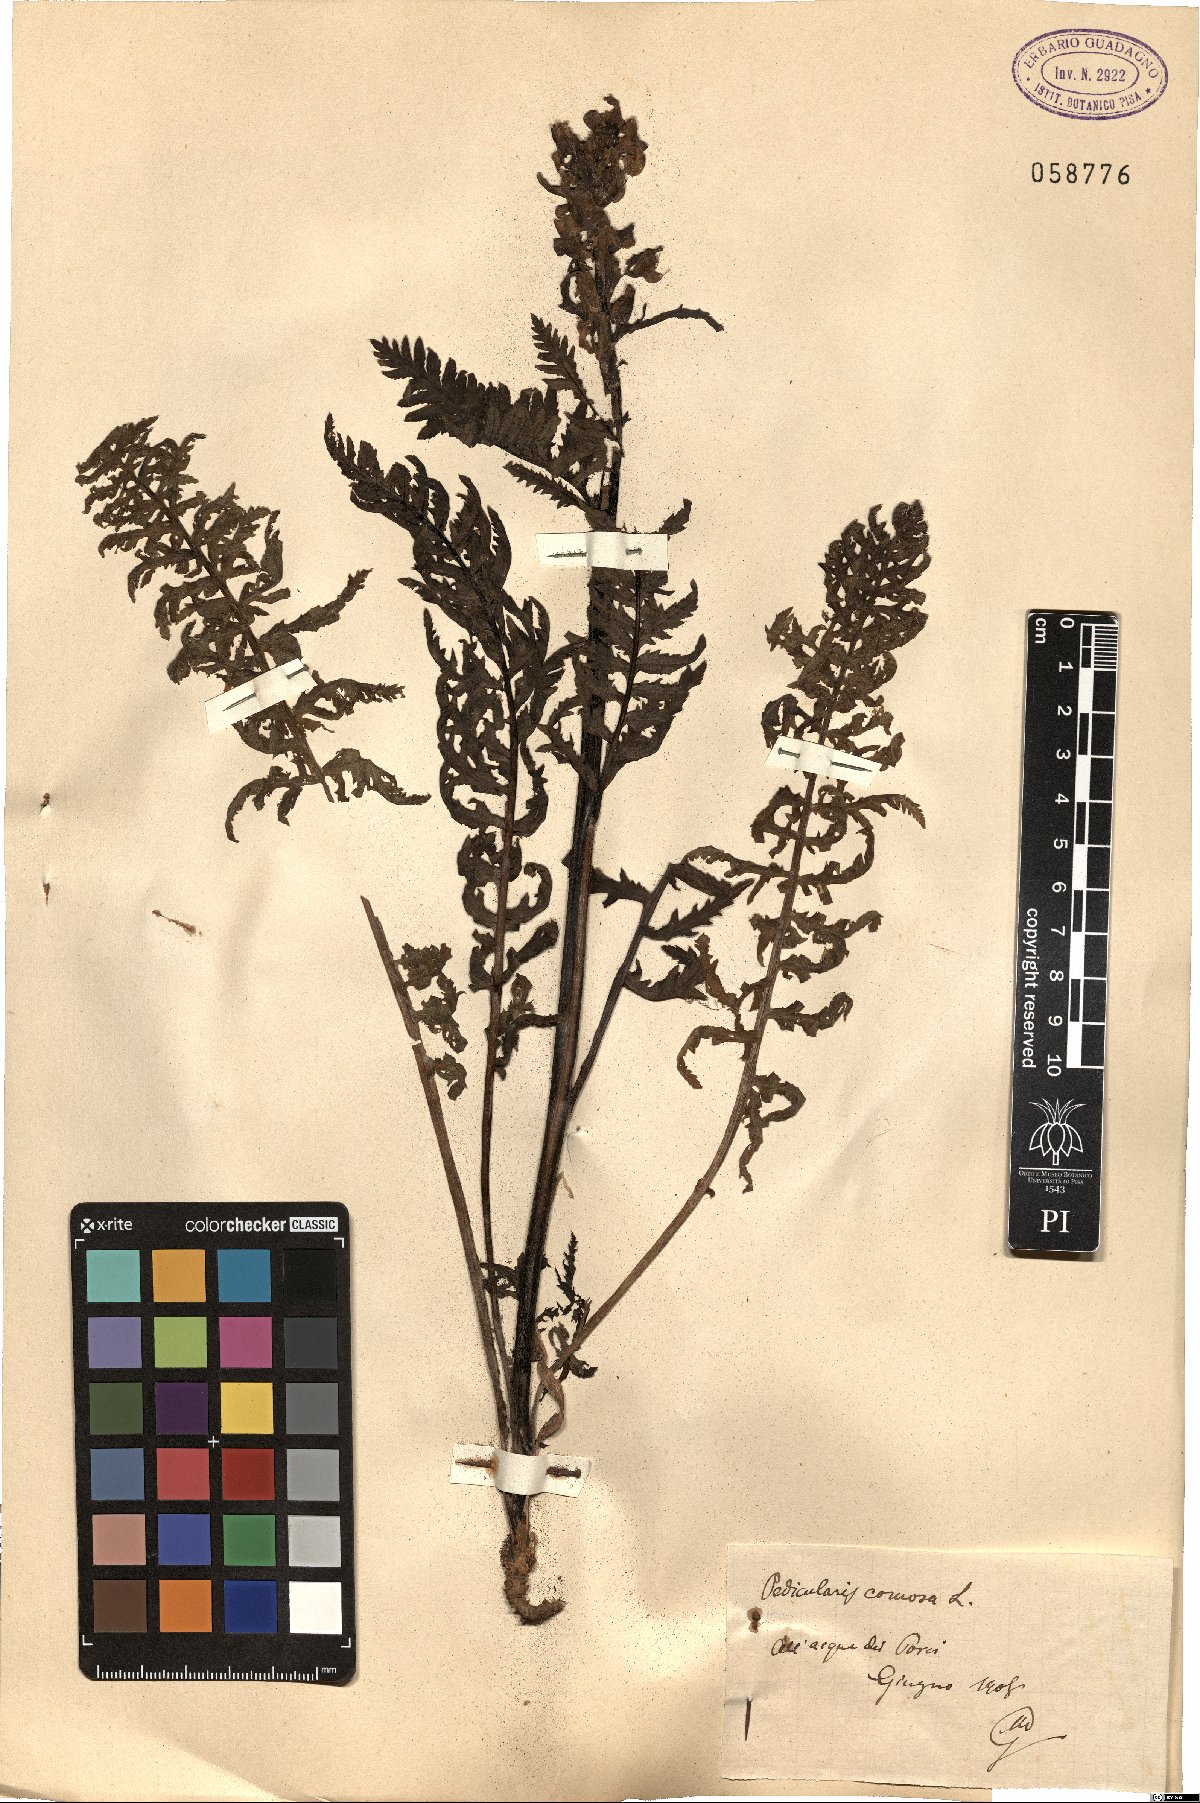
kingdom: Plantae
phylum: Tracheophyta
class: Magnoliopsida
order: Lamiales
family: Orobanchaceae
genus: Pedicularis
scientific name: Pedicularis comosa
